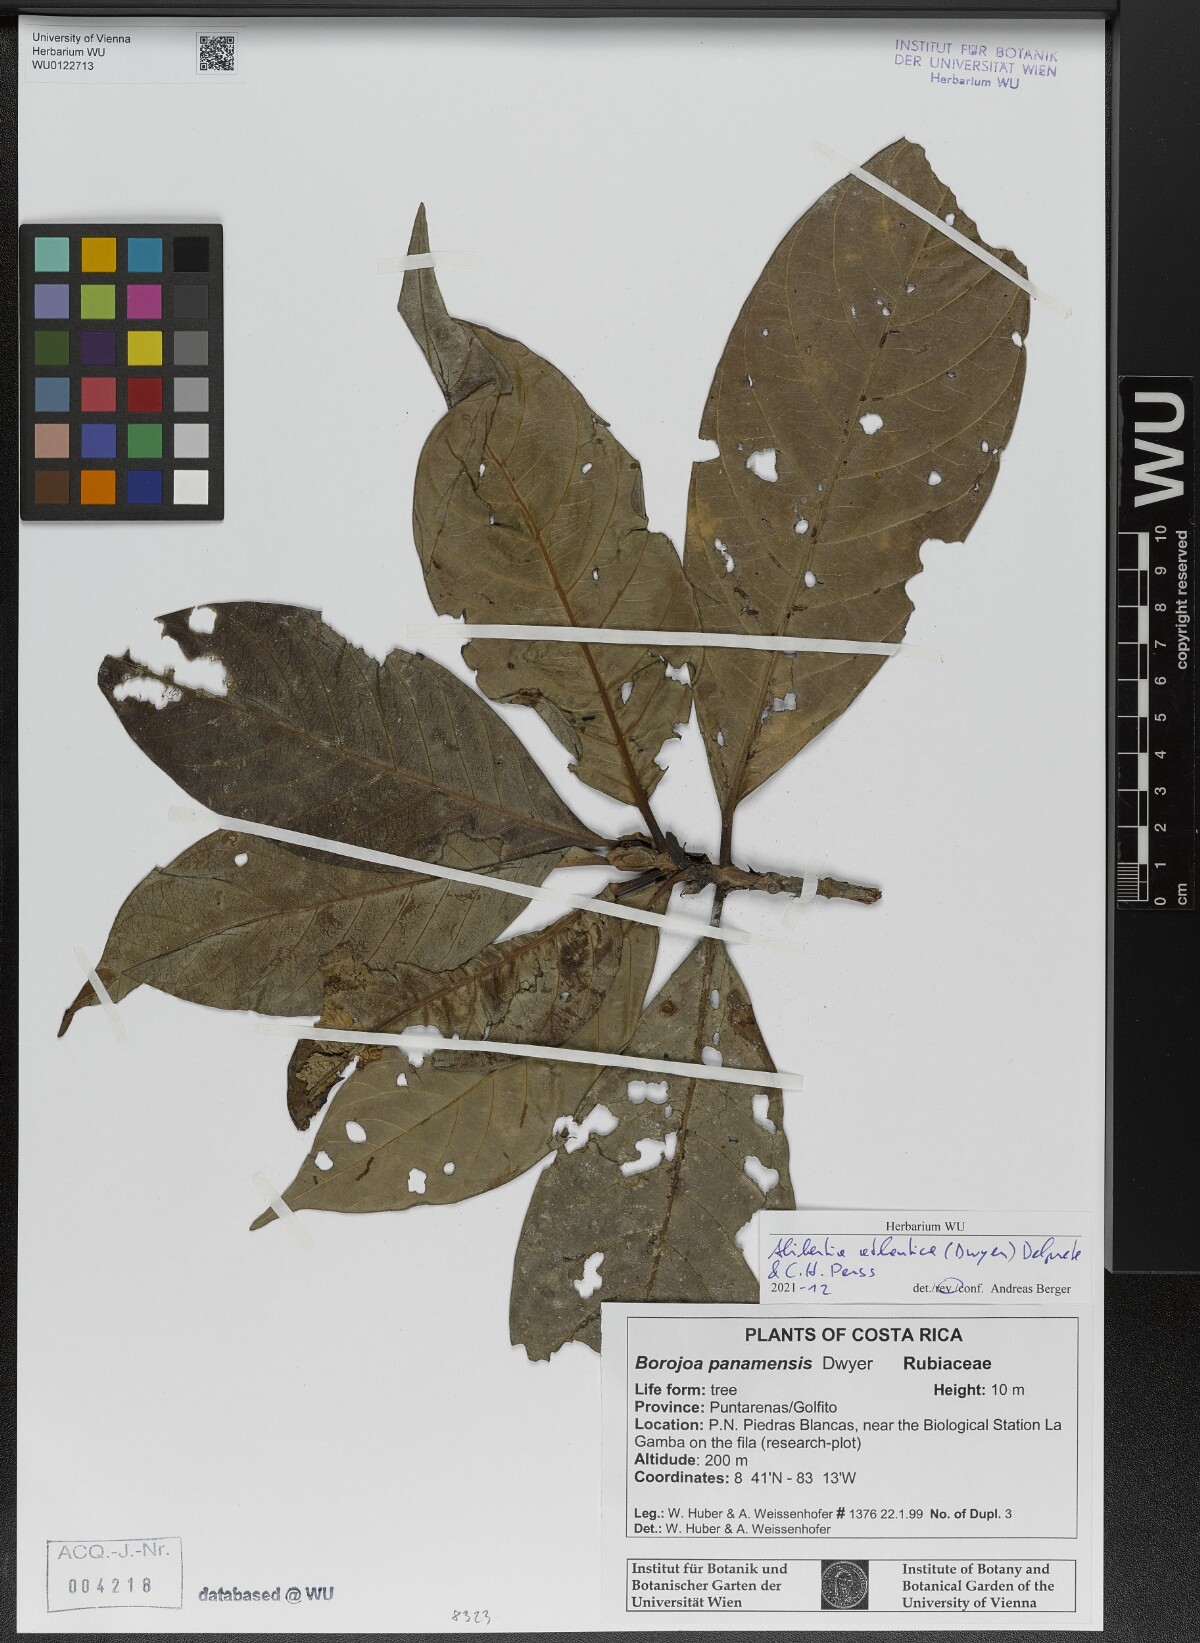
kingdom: Plantae
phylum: Tracheophyta
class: Magnoliopsida
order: Gentianales
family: Rubiaceae
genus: Alibertia
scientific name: Alibertia atlantica
